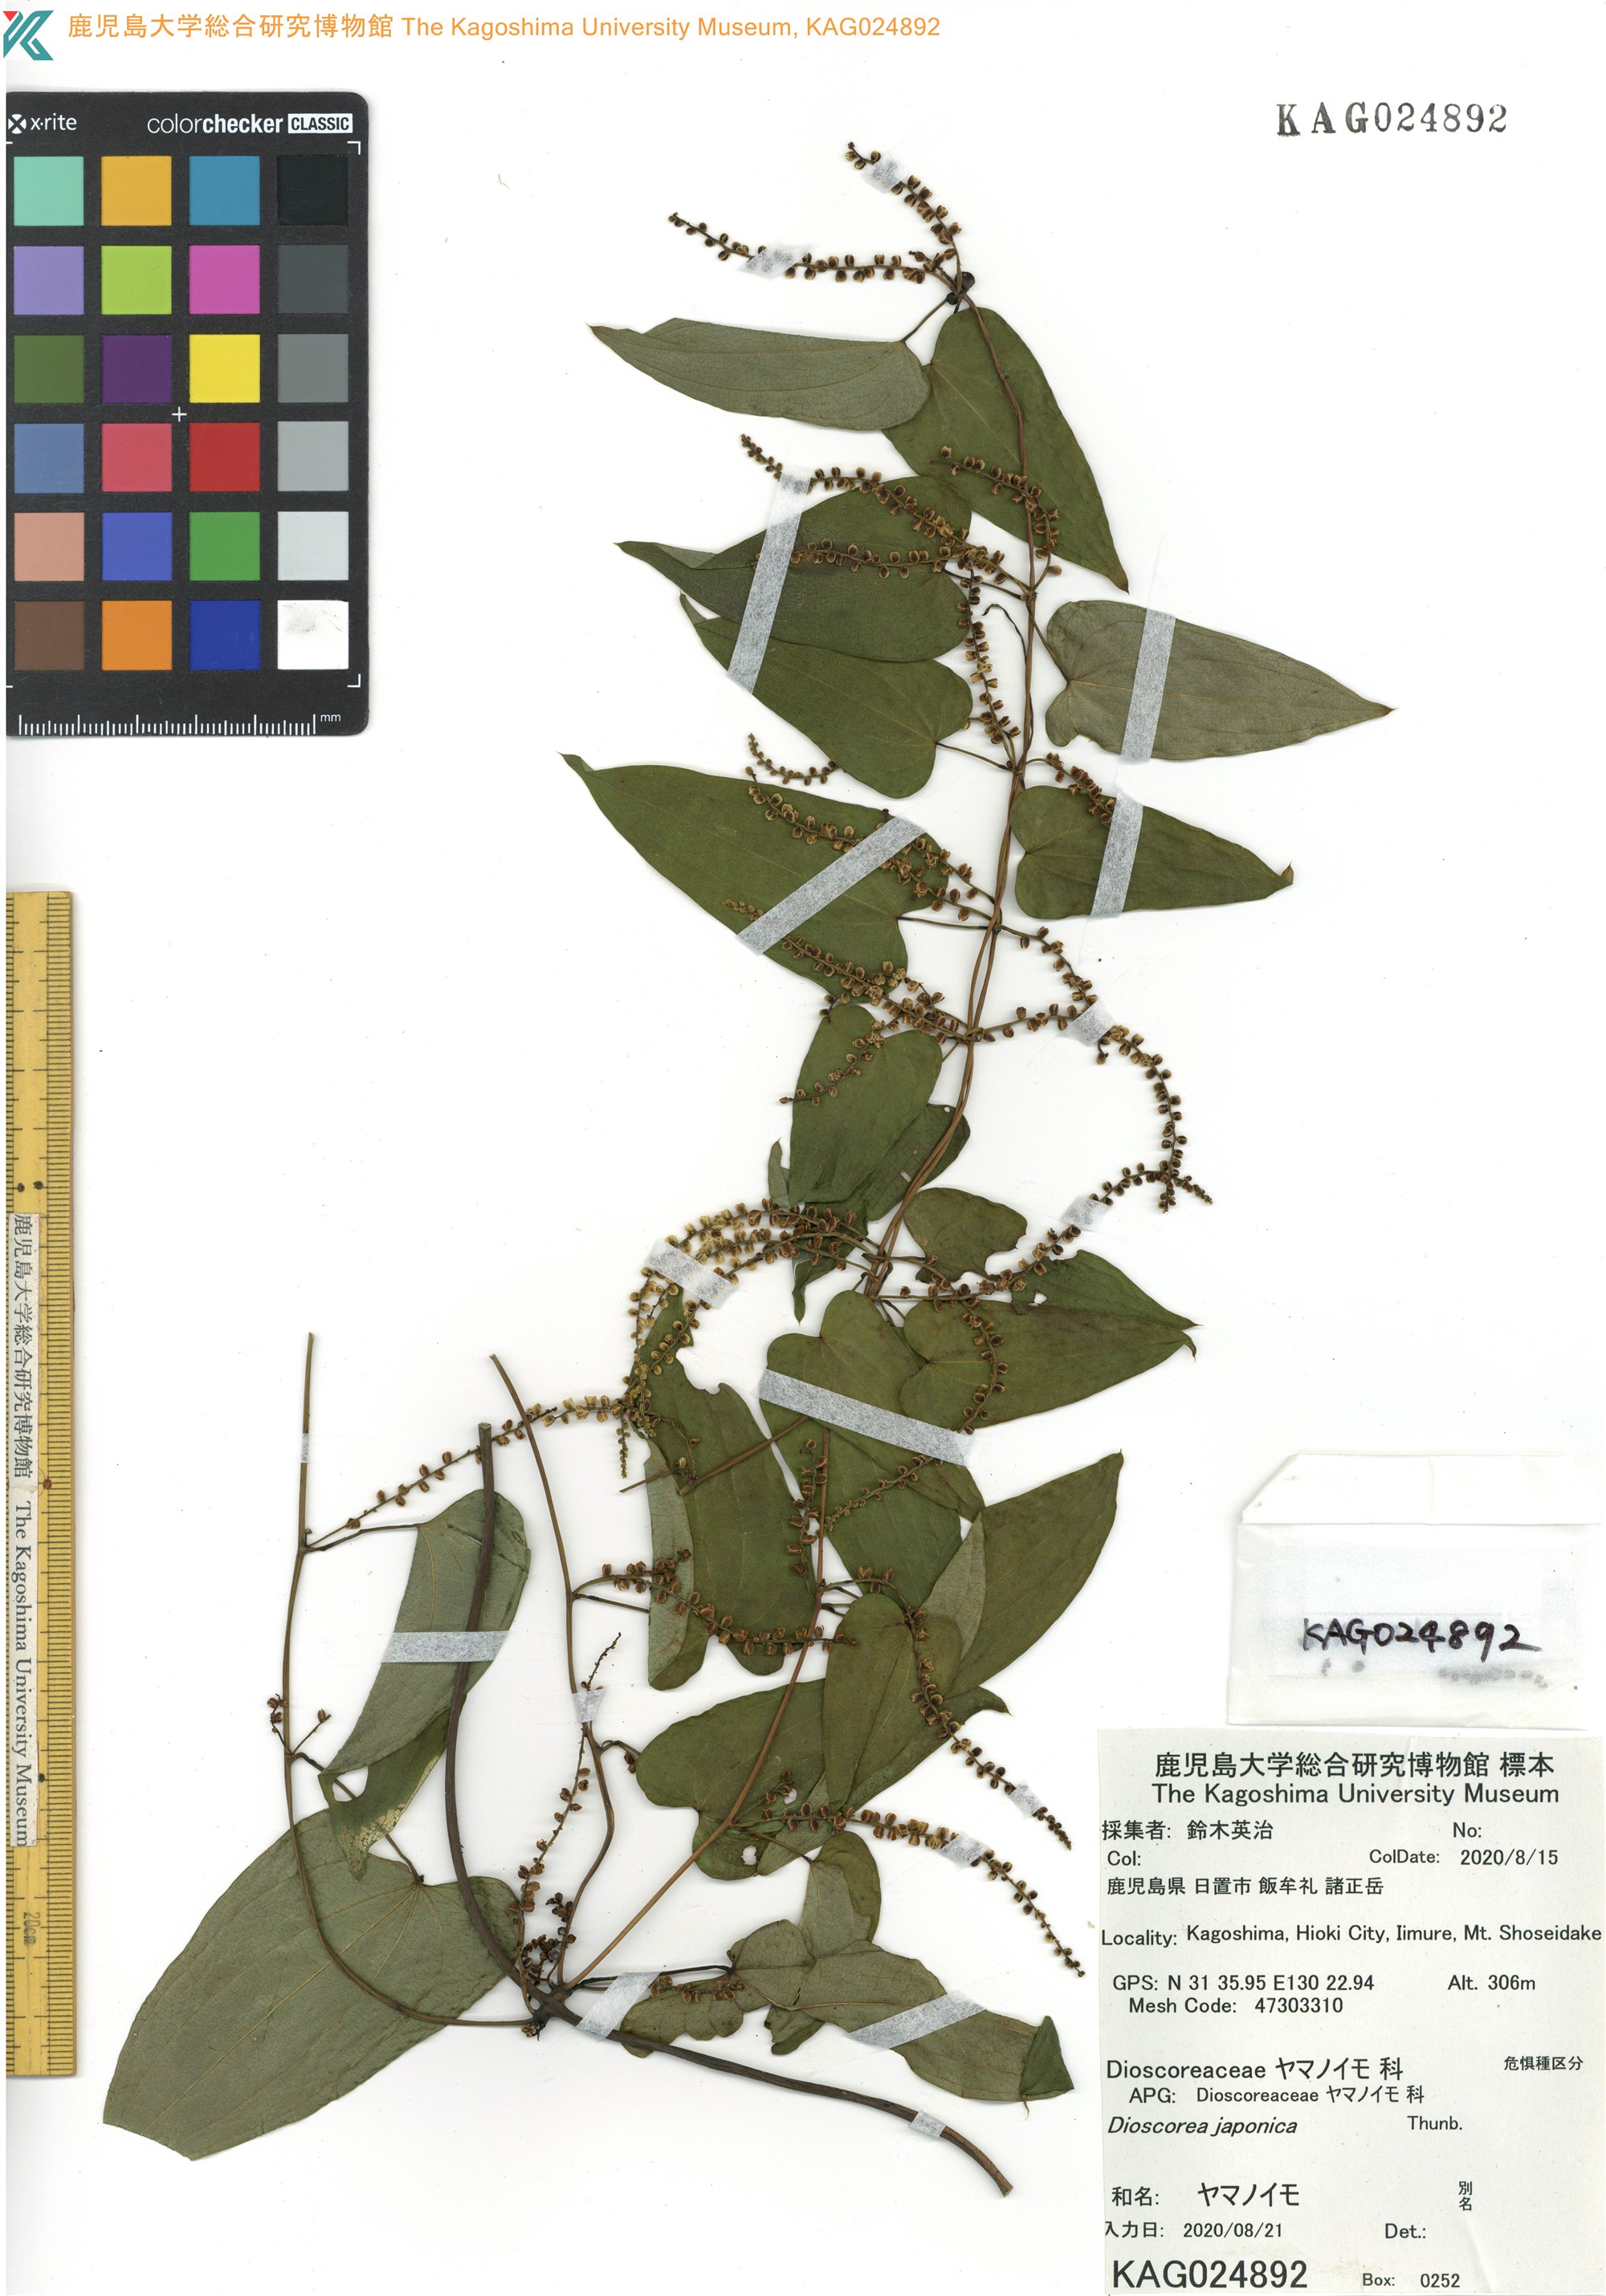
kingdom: Plantae
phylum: Tracheophyta
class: Liliopsida
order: Dioscoreales
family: Dioscoreaceae
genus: Dioscorea
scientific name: Dioscorea japonica
